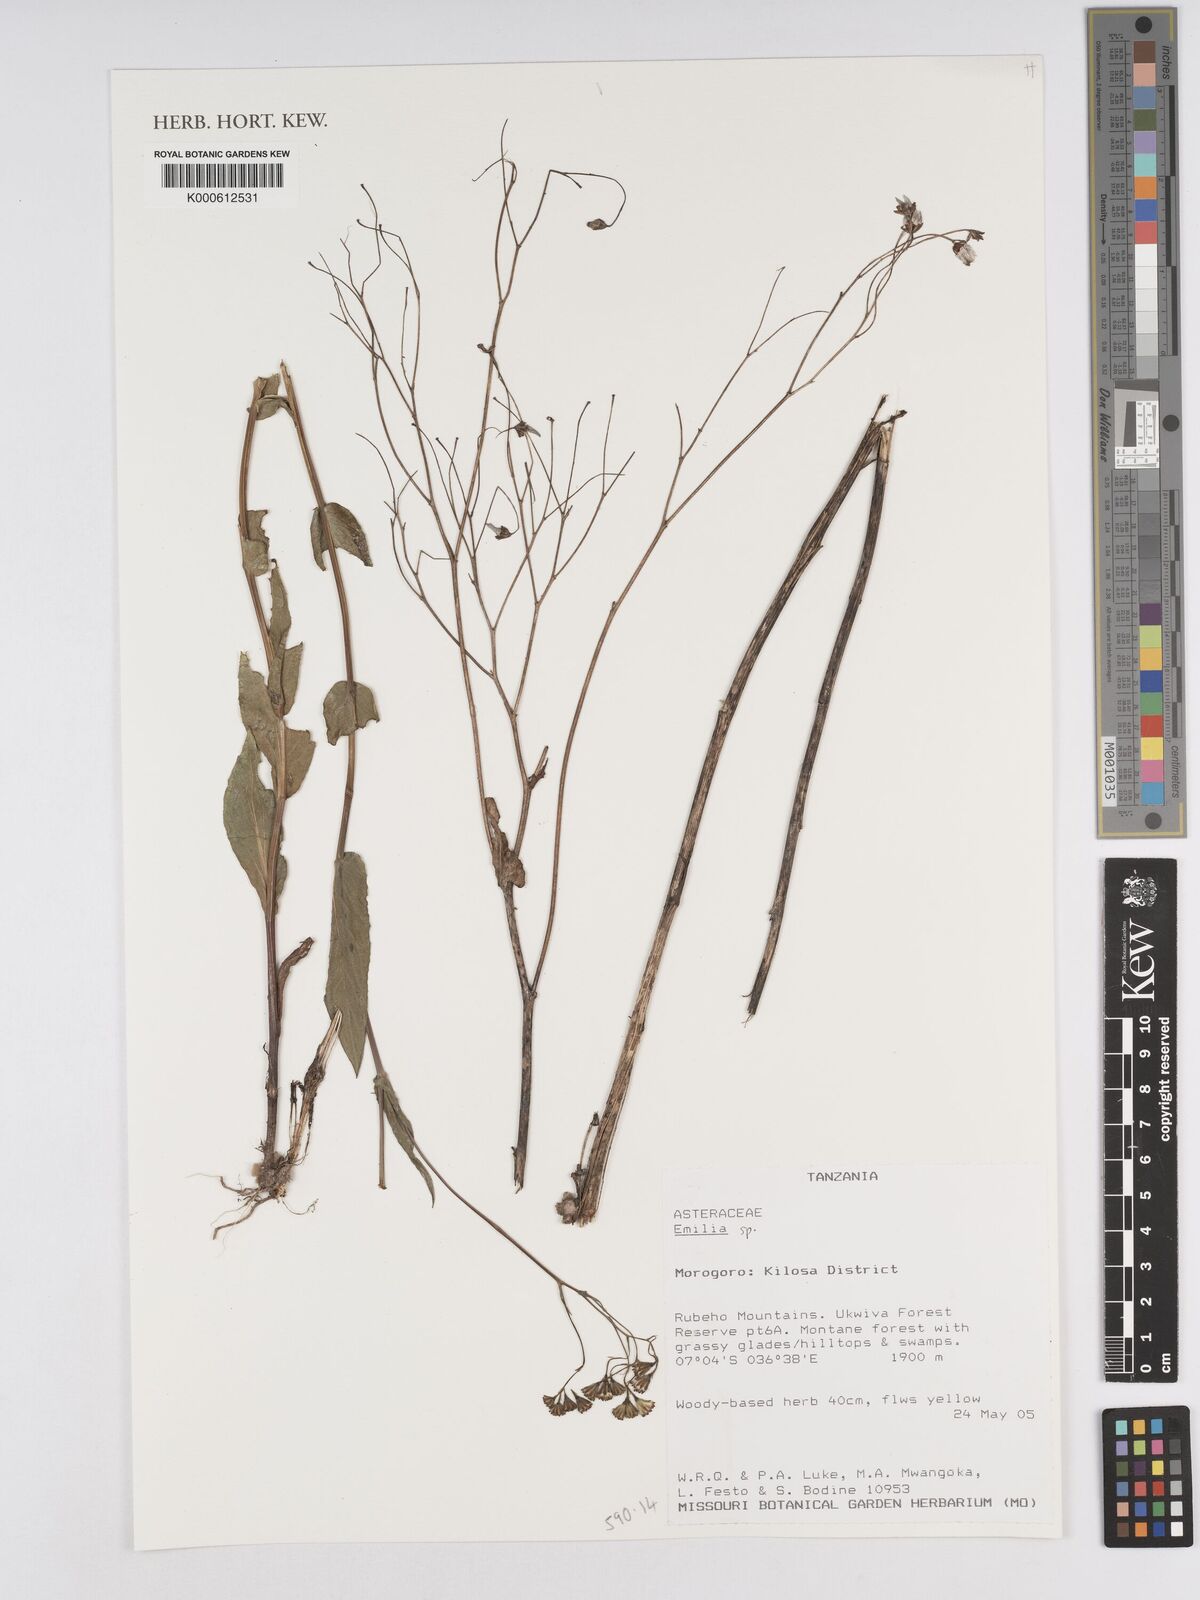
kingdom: Plantae
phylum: Tracheophyta
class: Magnoliopsida
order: Asterales
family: Asteraceae
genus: Emilia
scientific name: Emilia
